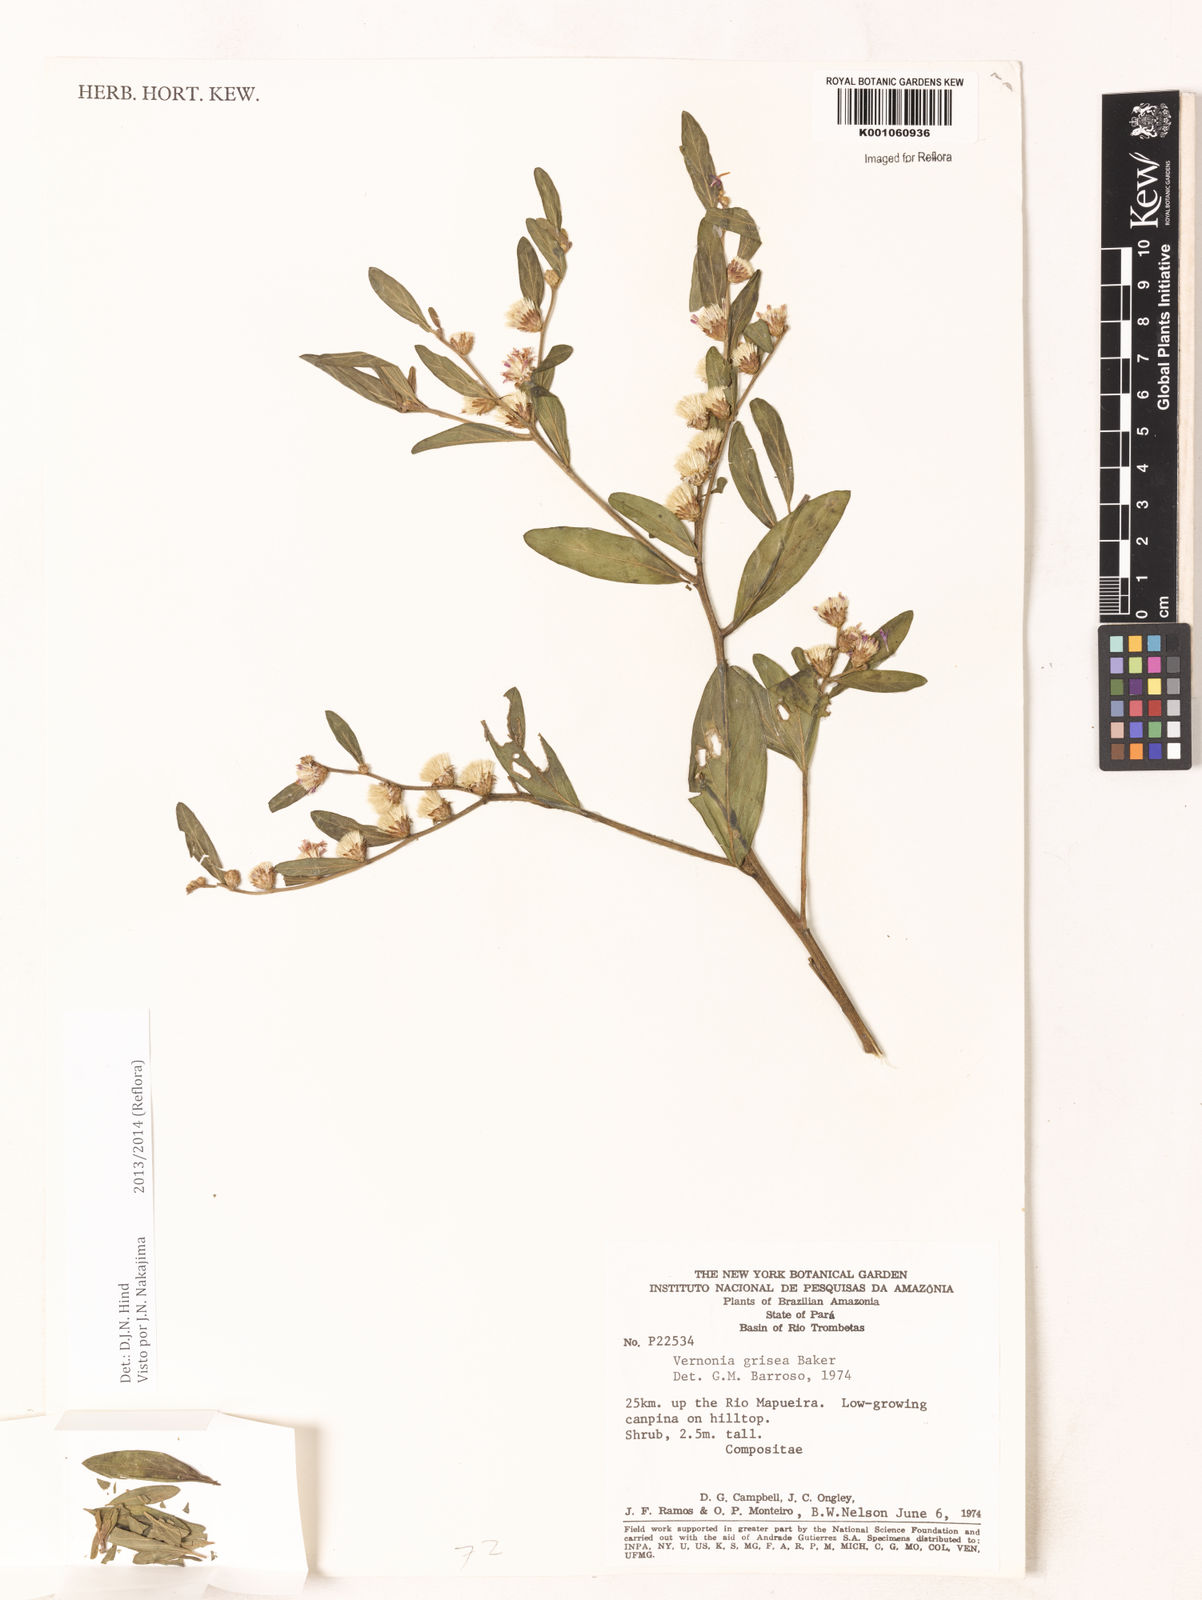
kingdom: Plantae
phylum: Tracheophyta
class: Magnoliopsida
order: Asterales
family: Asteraceae
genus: Lepidaploa
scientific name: Lepidaploa grisea
